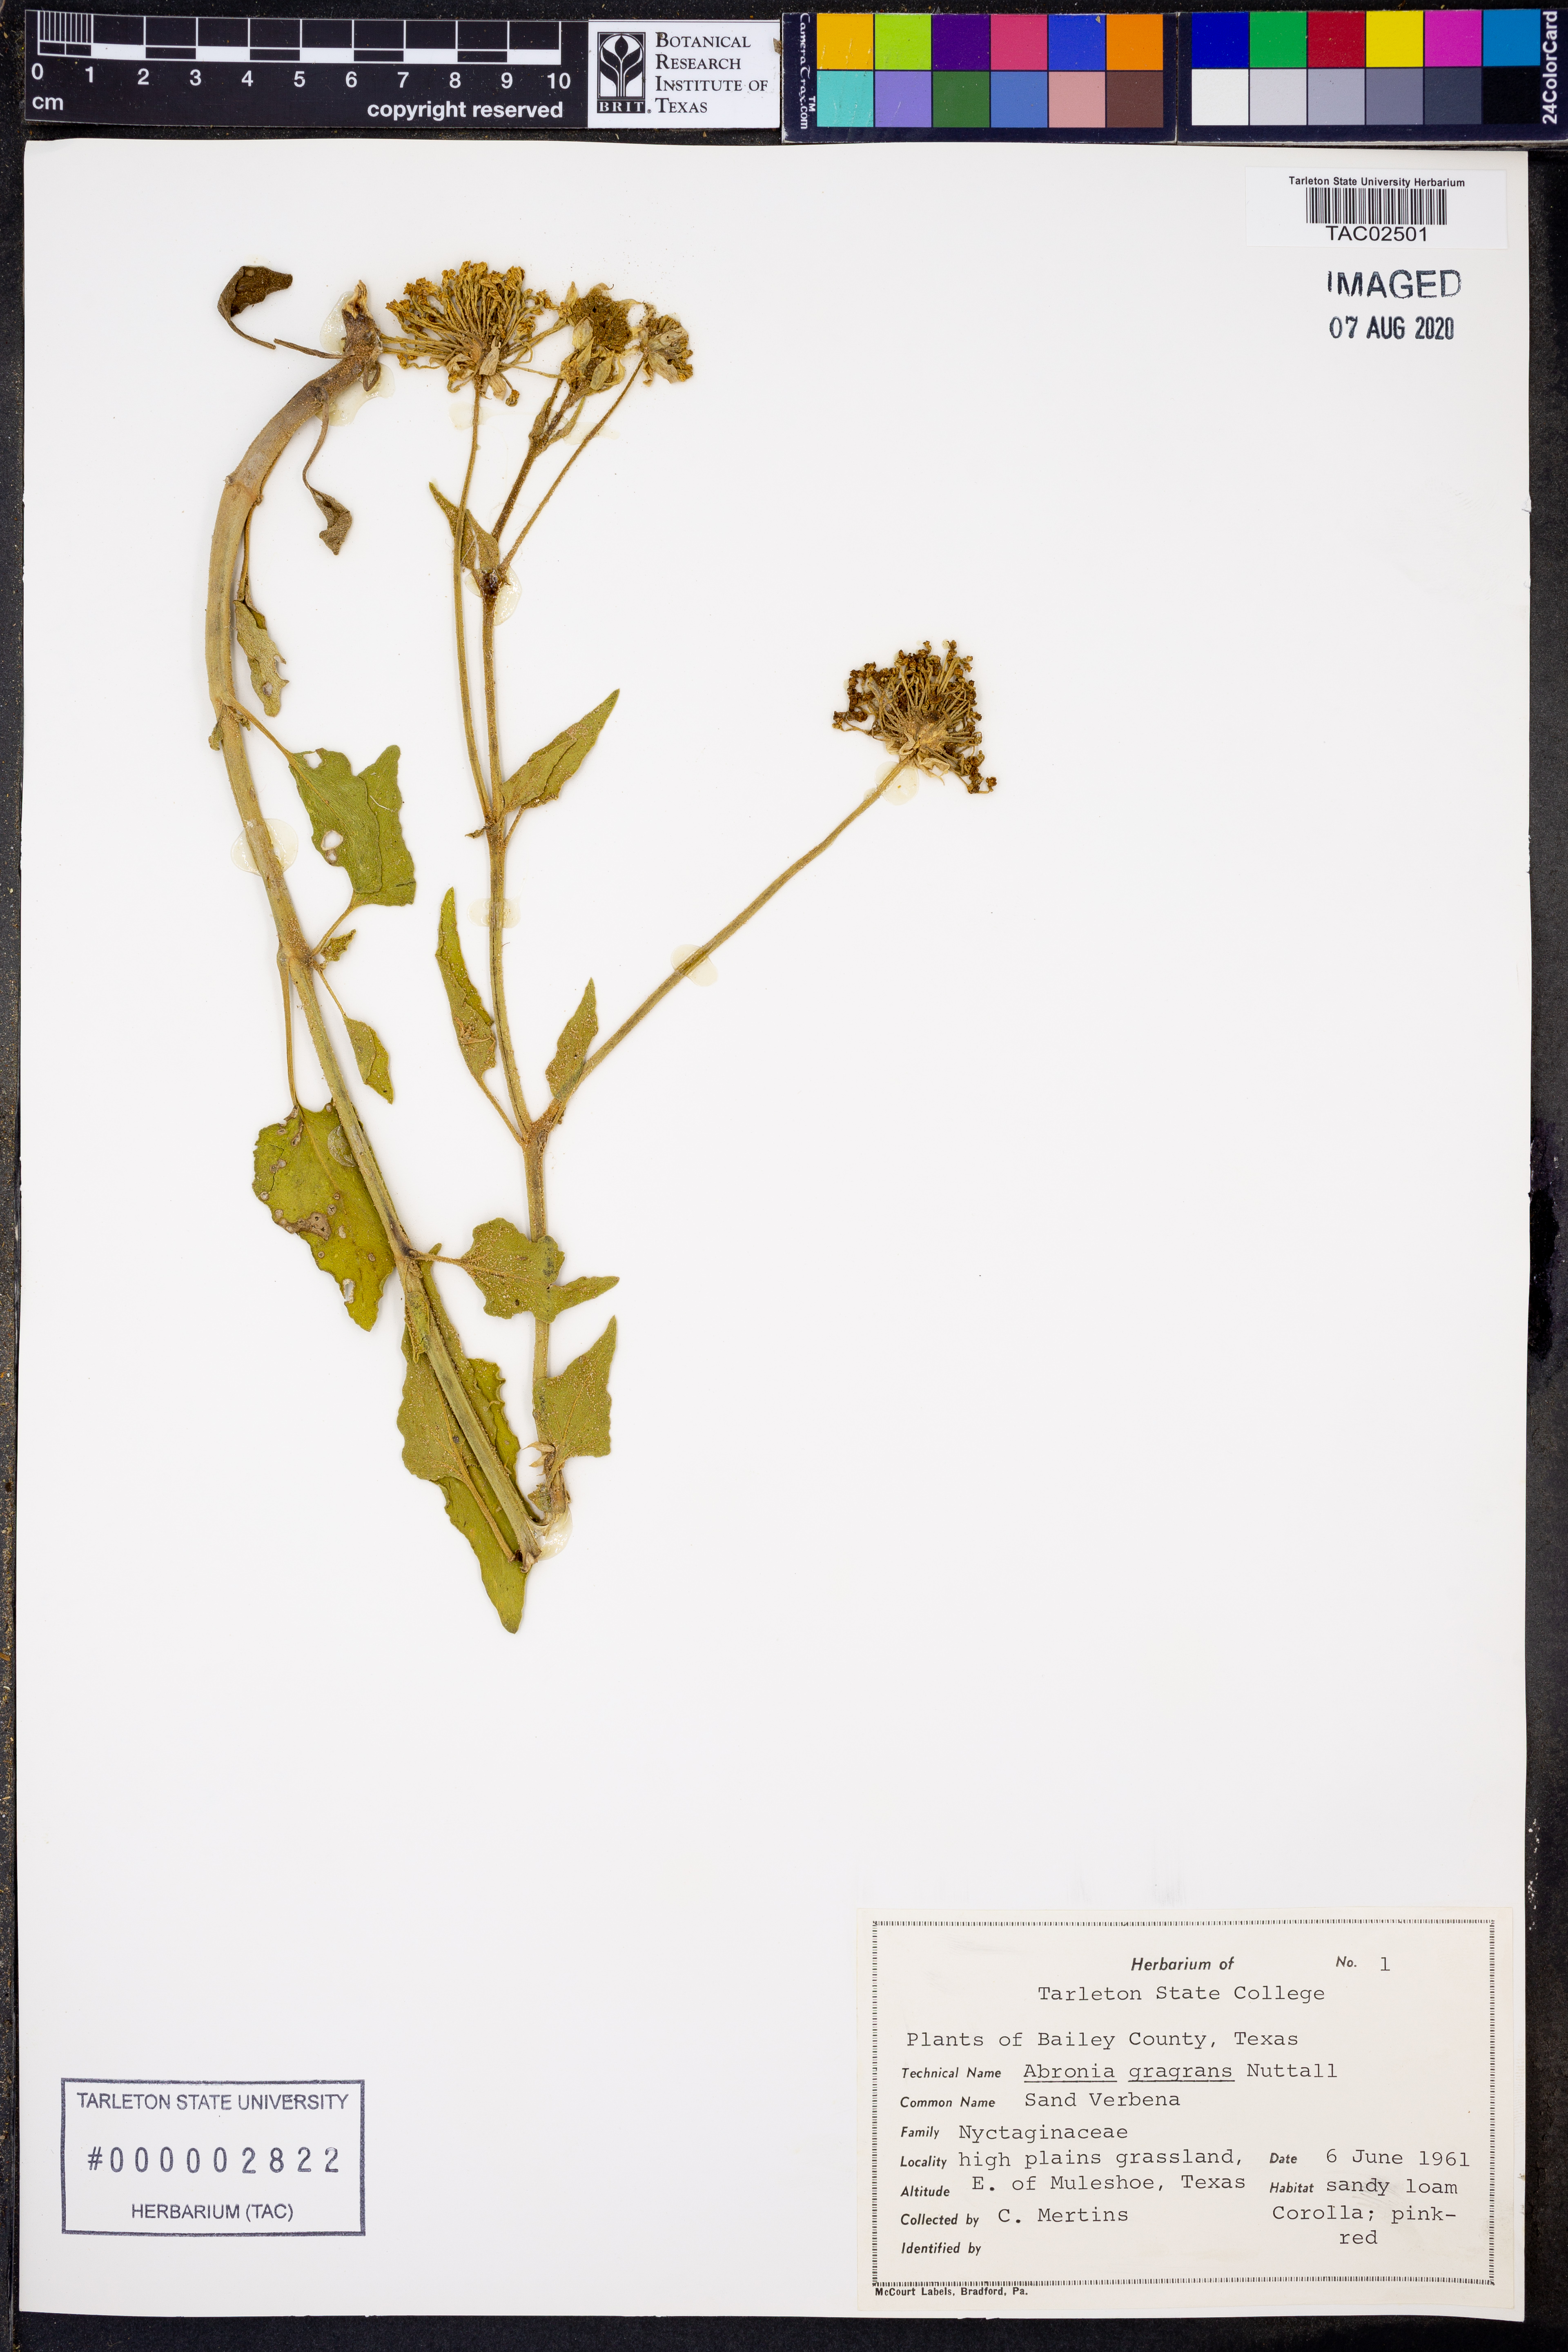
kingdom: Plantae
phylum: Tracheophyta
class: Magnoliopsida
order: Caryophyllales
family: Nyctaginaceae
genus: Abronia
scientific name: Abronia fragrans
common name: Fragrant sand-verbena
